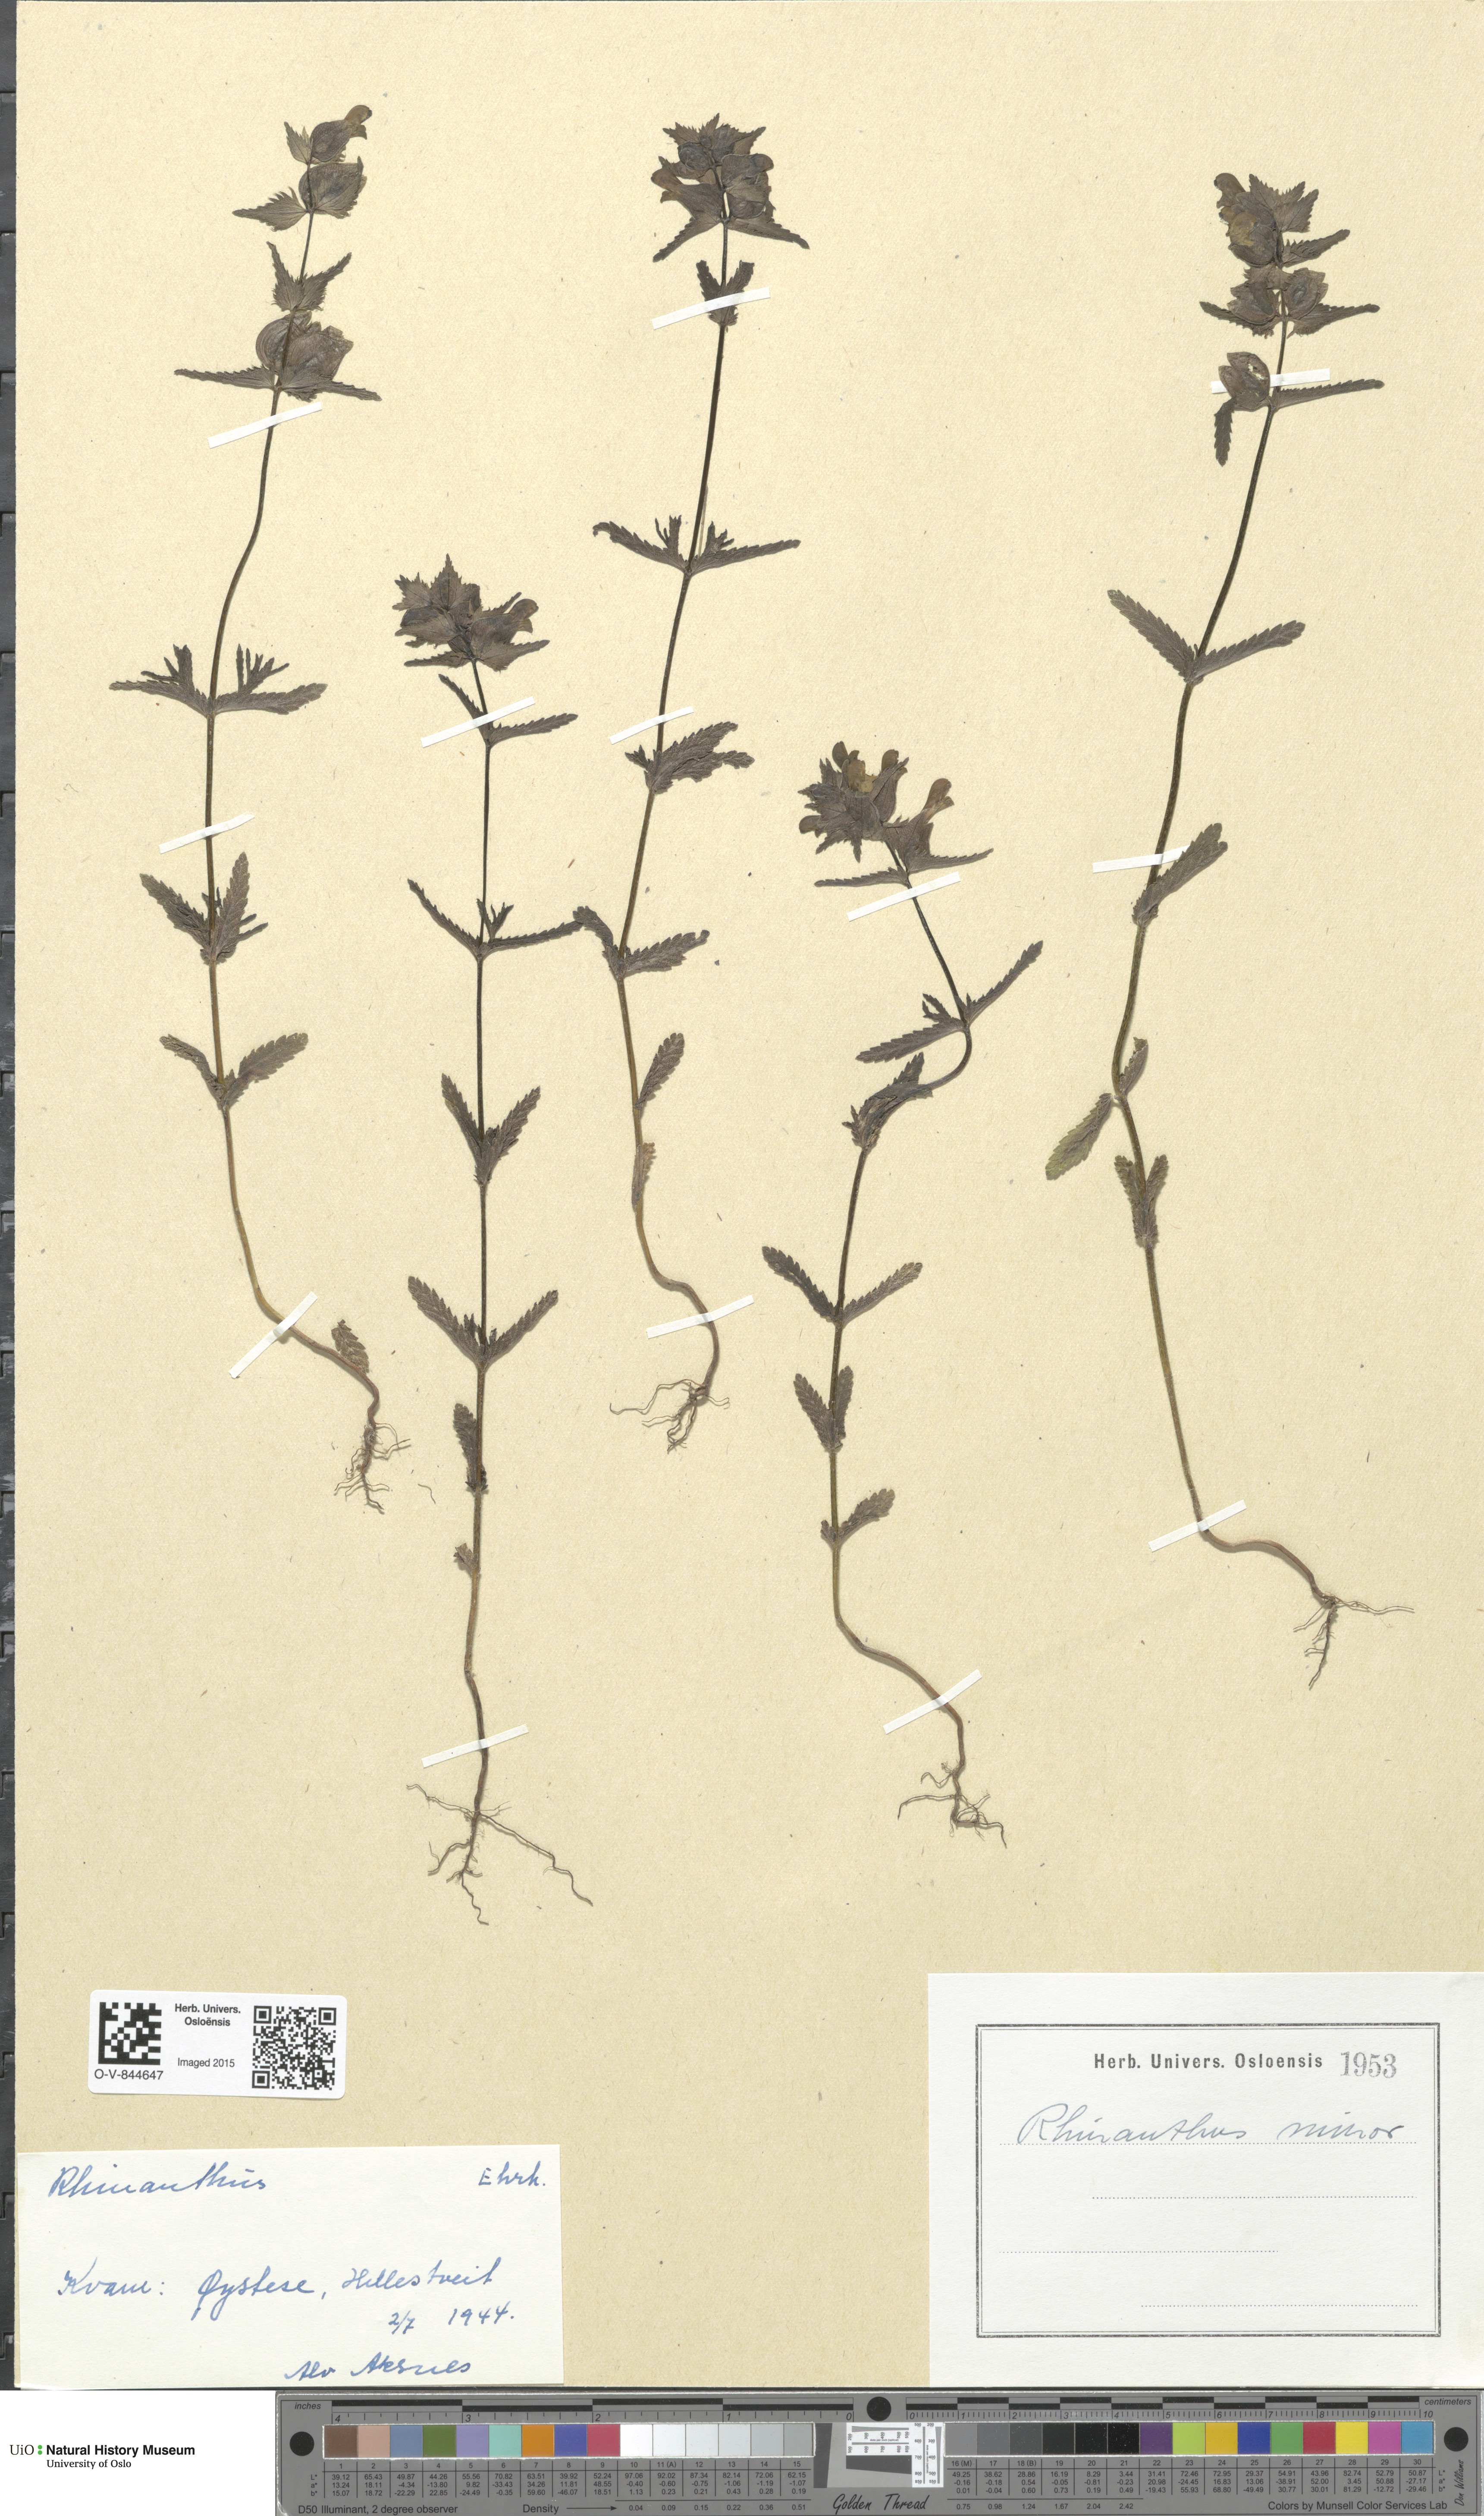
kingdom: Plantae
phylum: Tracheophyta
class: Magnoliopsida
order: Lamiales
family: Orobanchaceae
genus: Rhinanthus
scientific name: Rhinanthus minor
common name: Yellow-rattle
